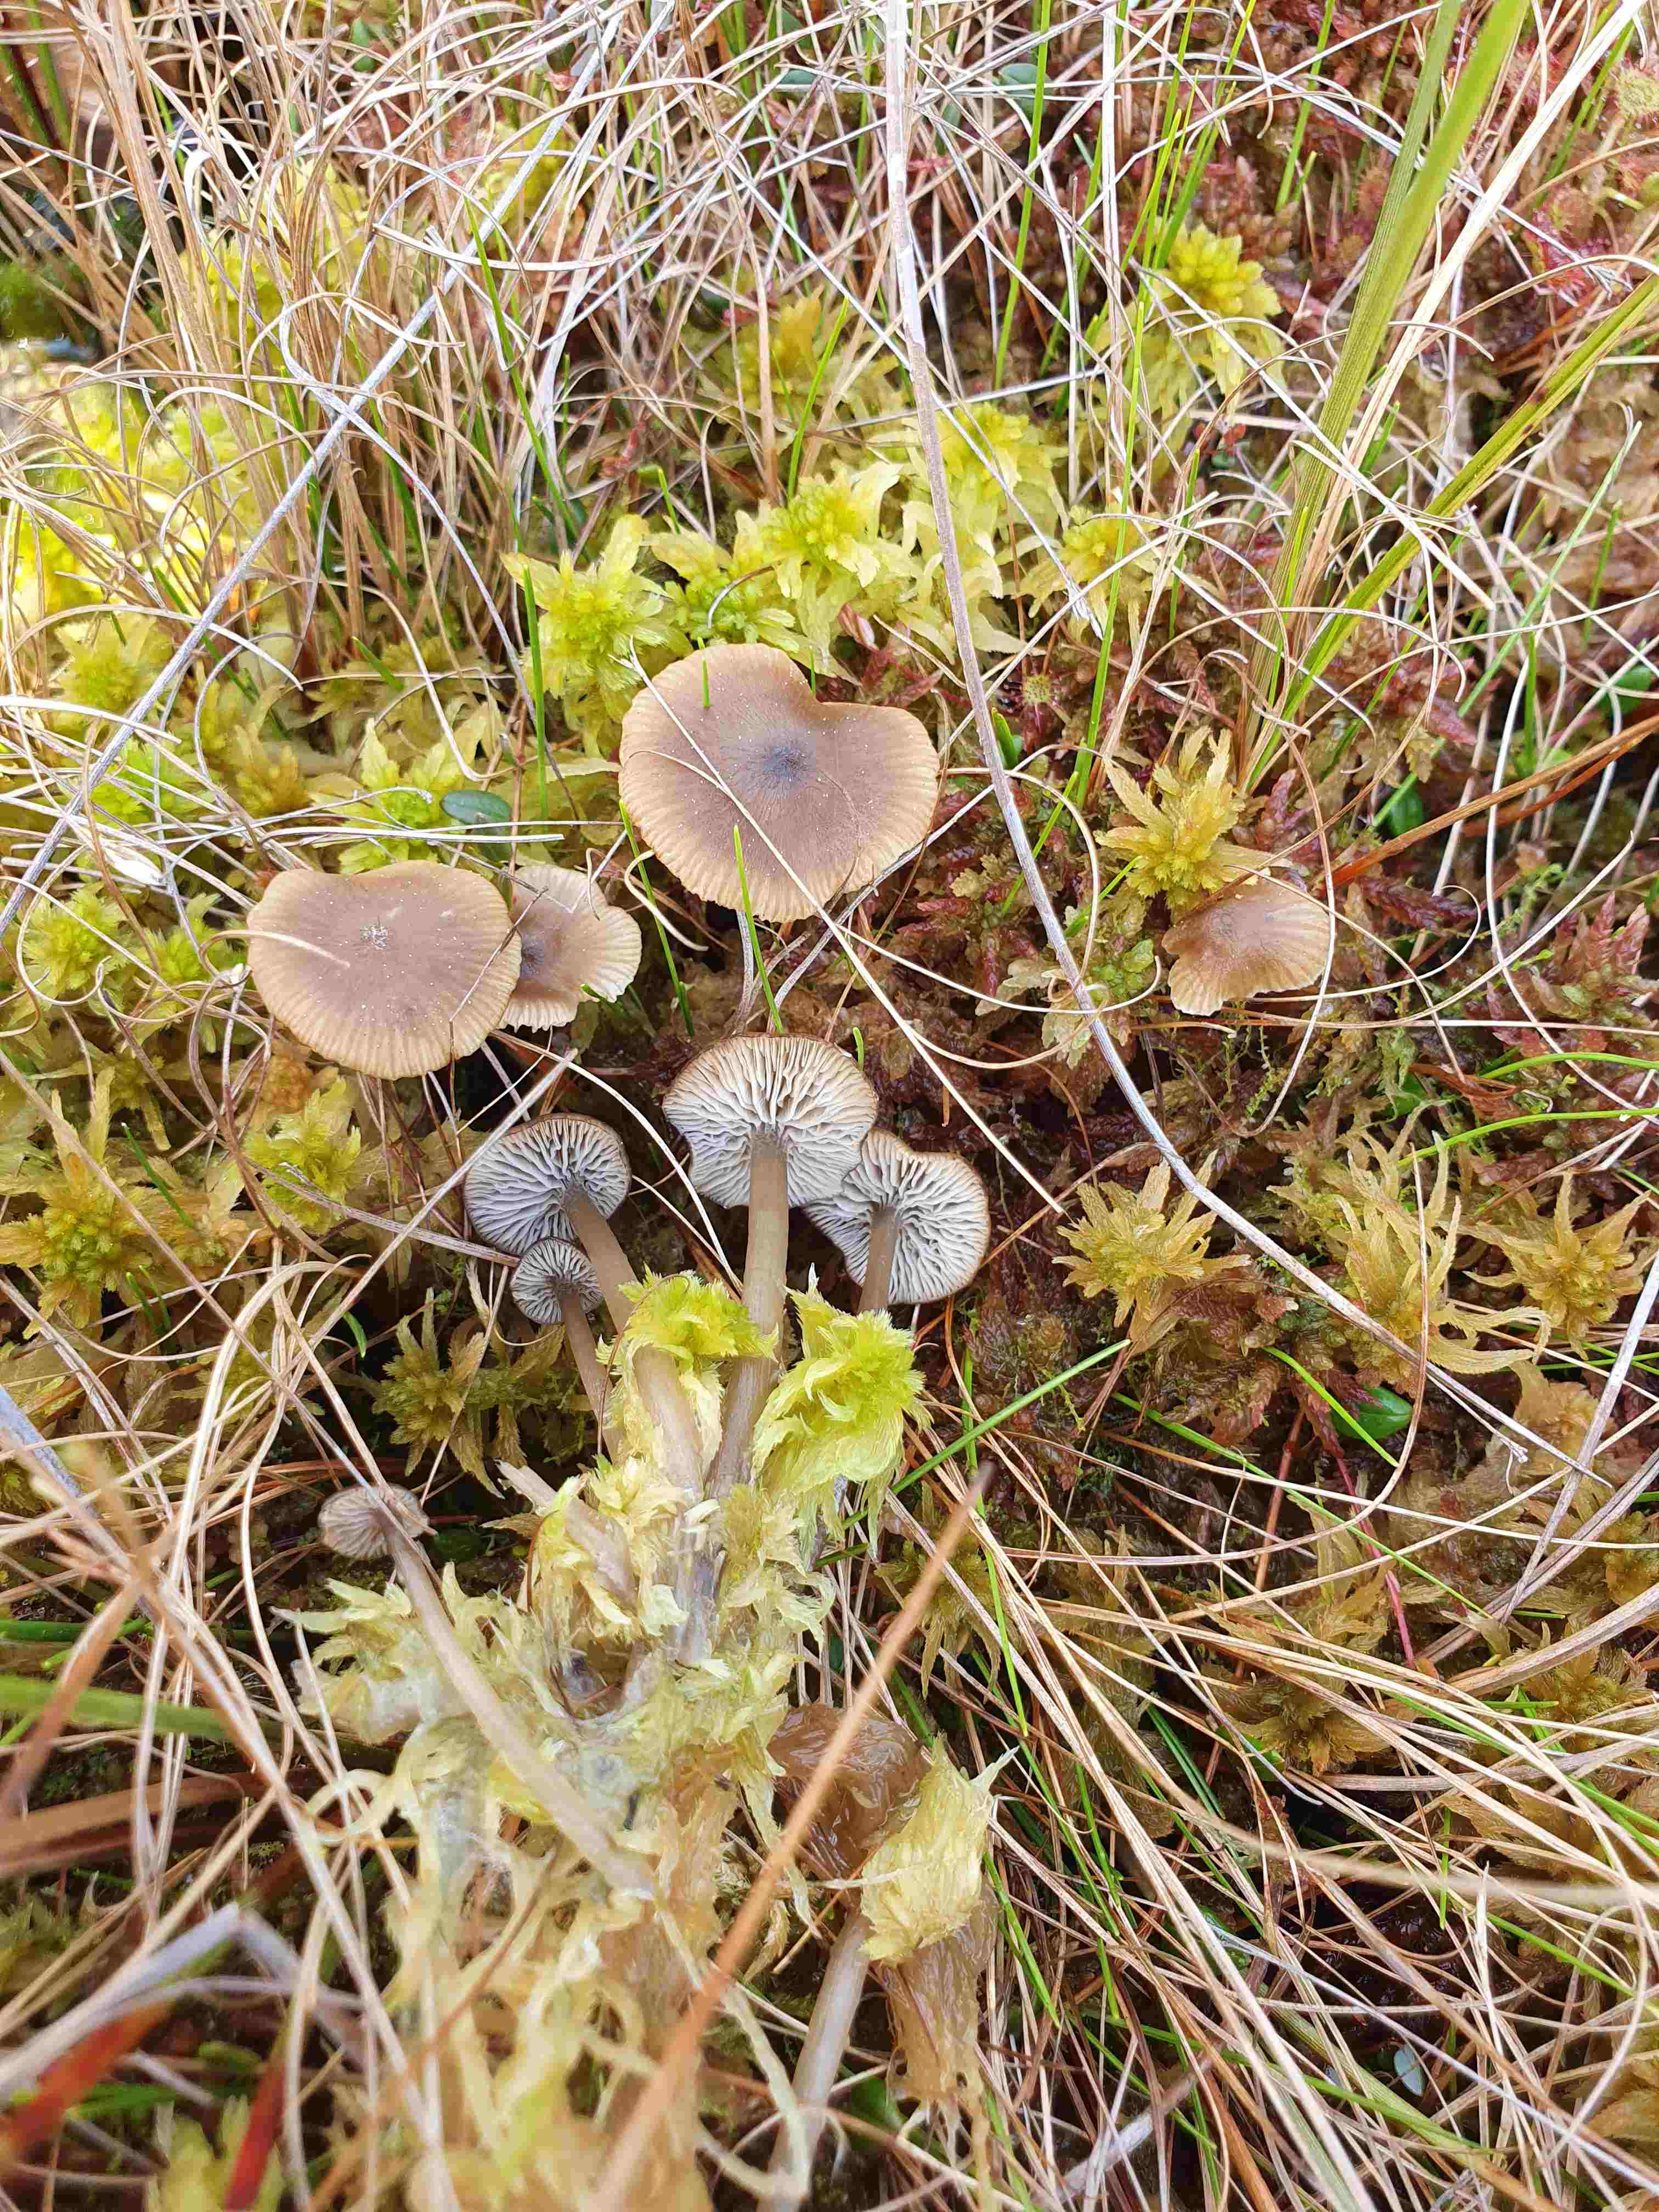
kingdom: Fungi
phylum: Basidiomycota
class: Agaricomycetes
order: Agaricales
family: Lyophyllaceae
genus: Sphagnurus
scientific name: Sphagnurus paluster
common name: tørvemos-gråblad
